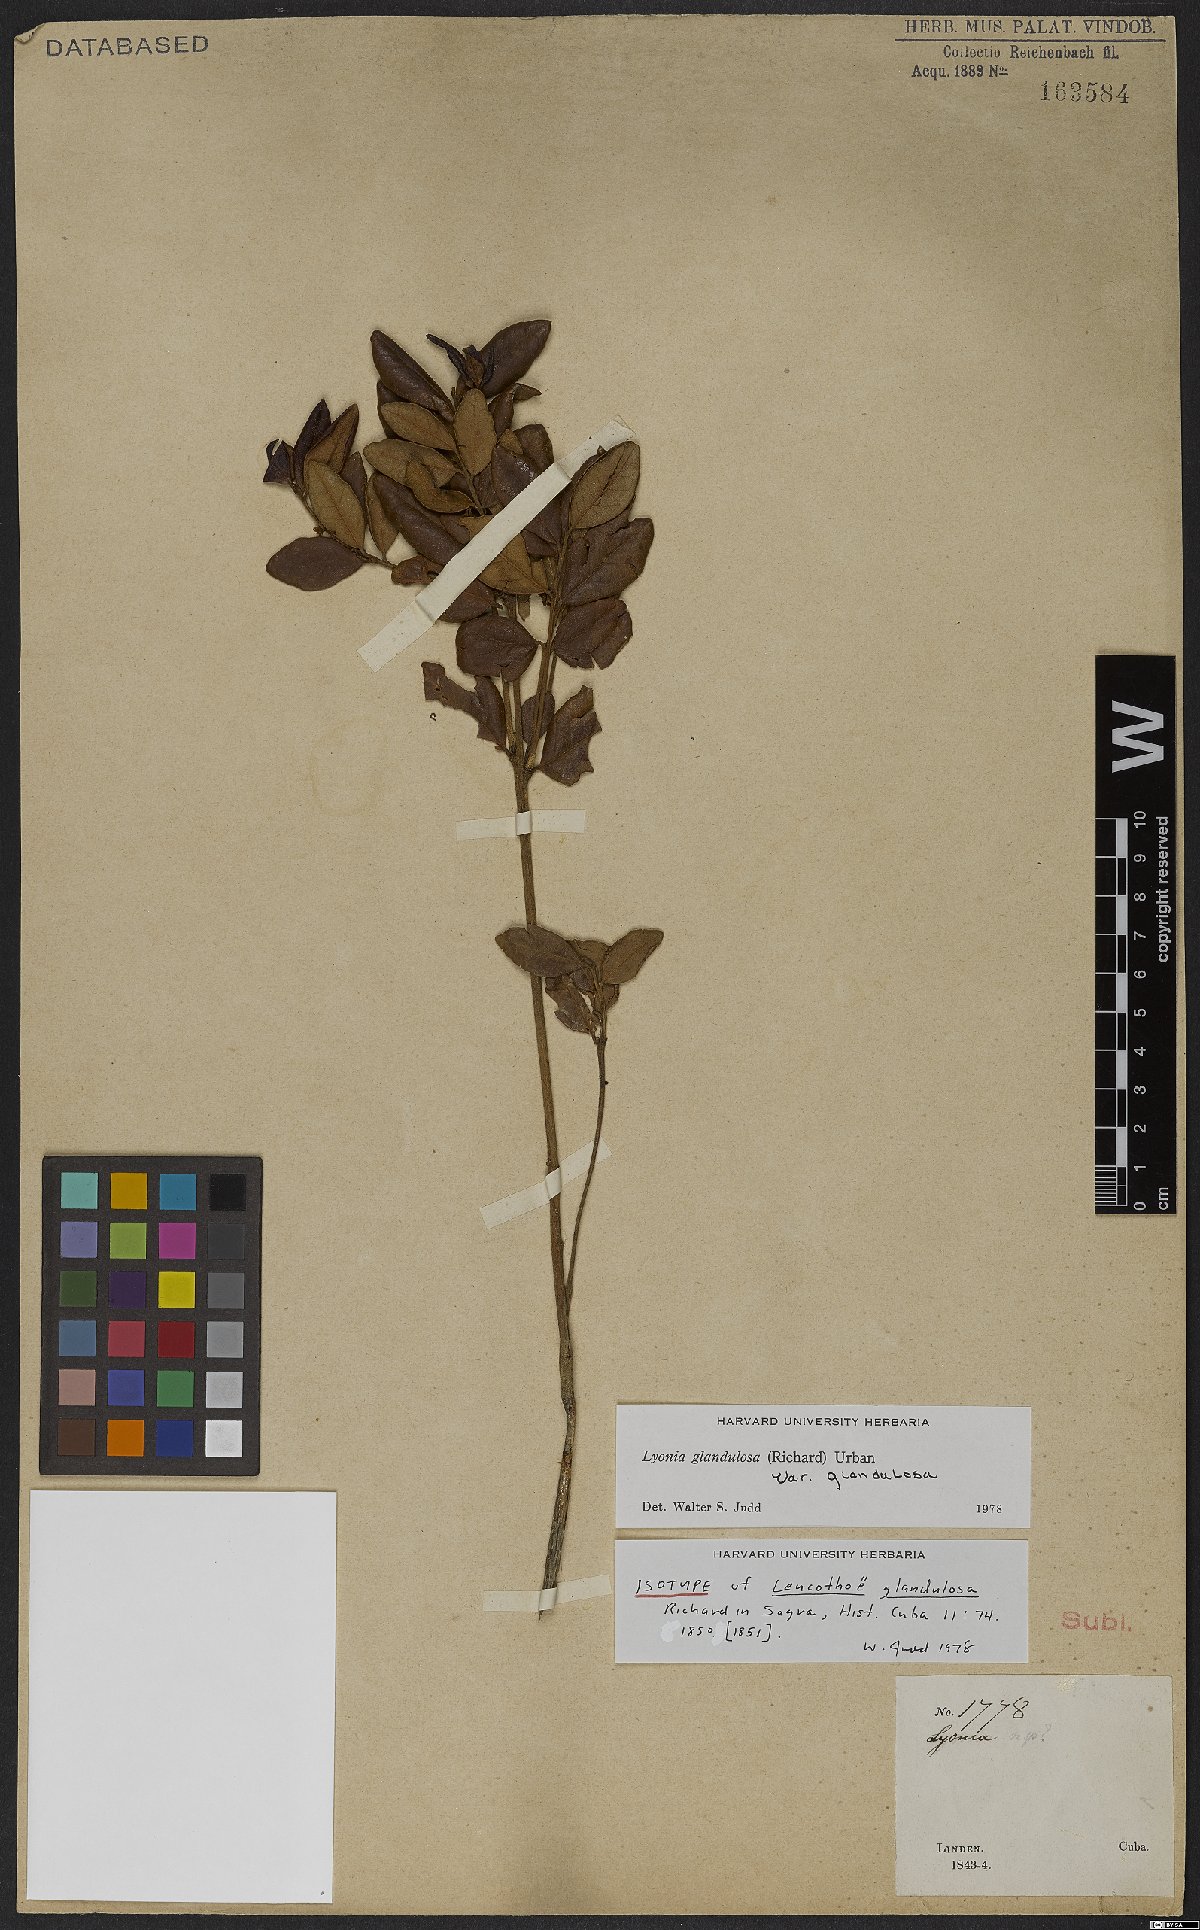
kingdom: Plantae
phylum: Tracheophyta
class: Magnoliopsida
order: Ericales
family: Ericaceae
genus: Lyonia
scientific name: Lyonia glandulosa
